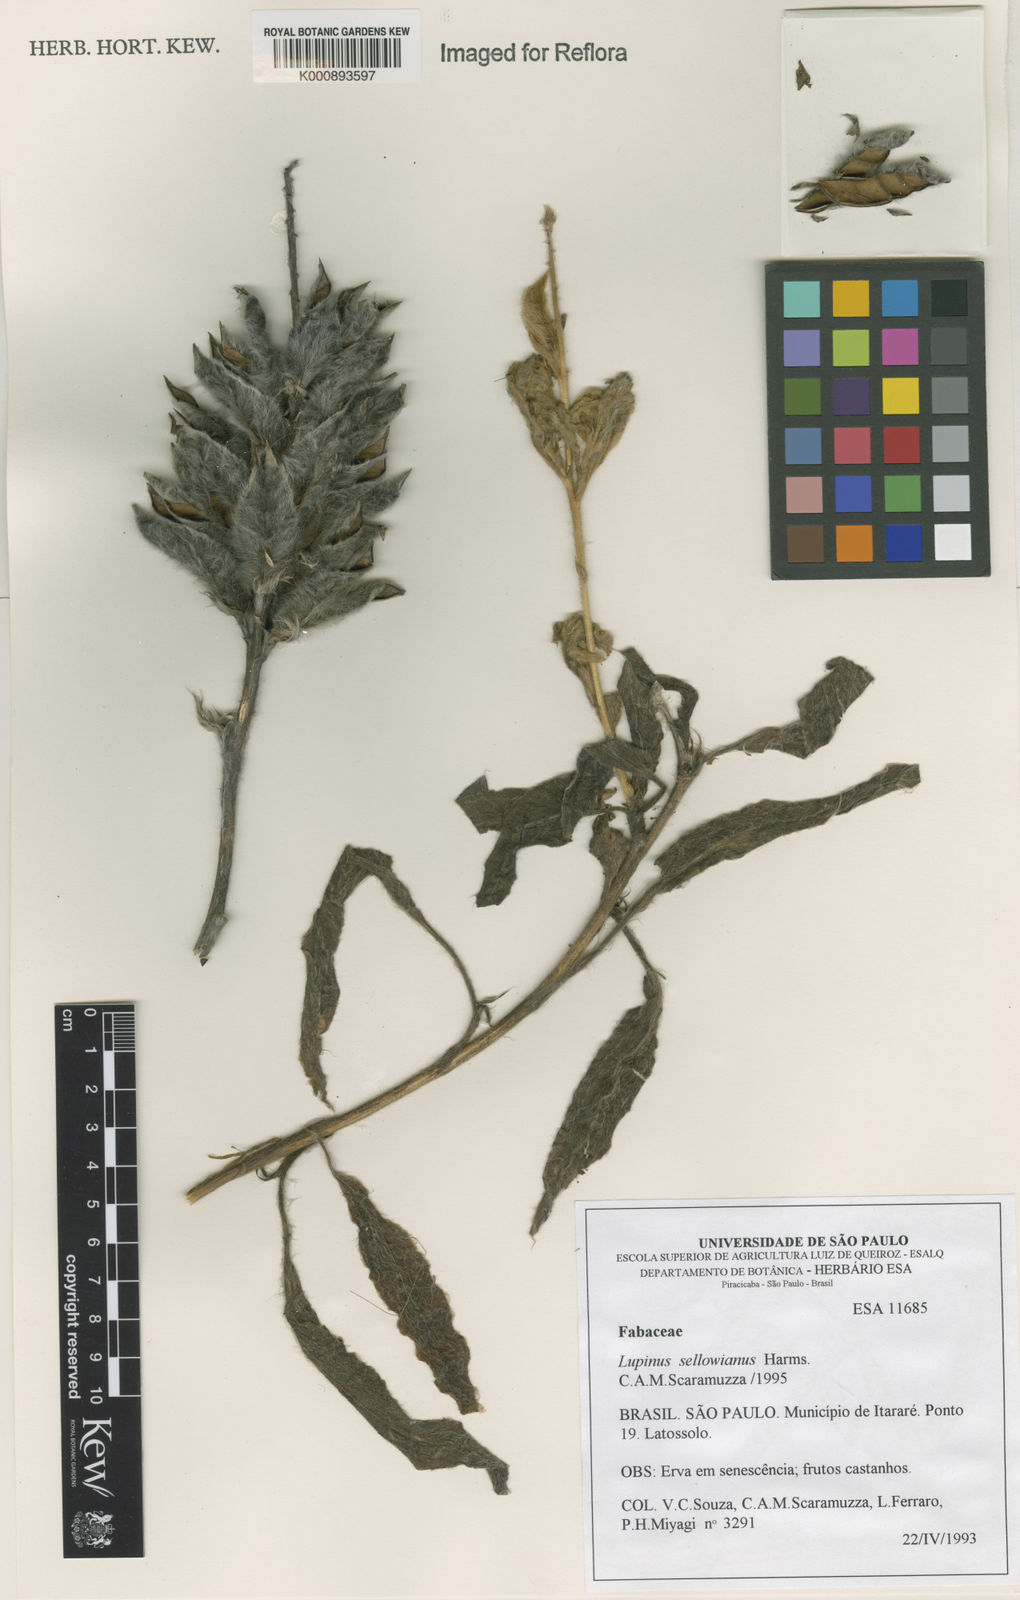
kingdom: Plantae
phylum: Tracheophyta
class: Magnoliopsida
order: Fabales
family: Fabaceae
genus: Lupinus
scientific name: Lupinus sellowianus
